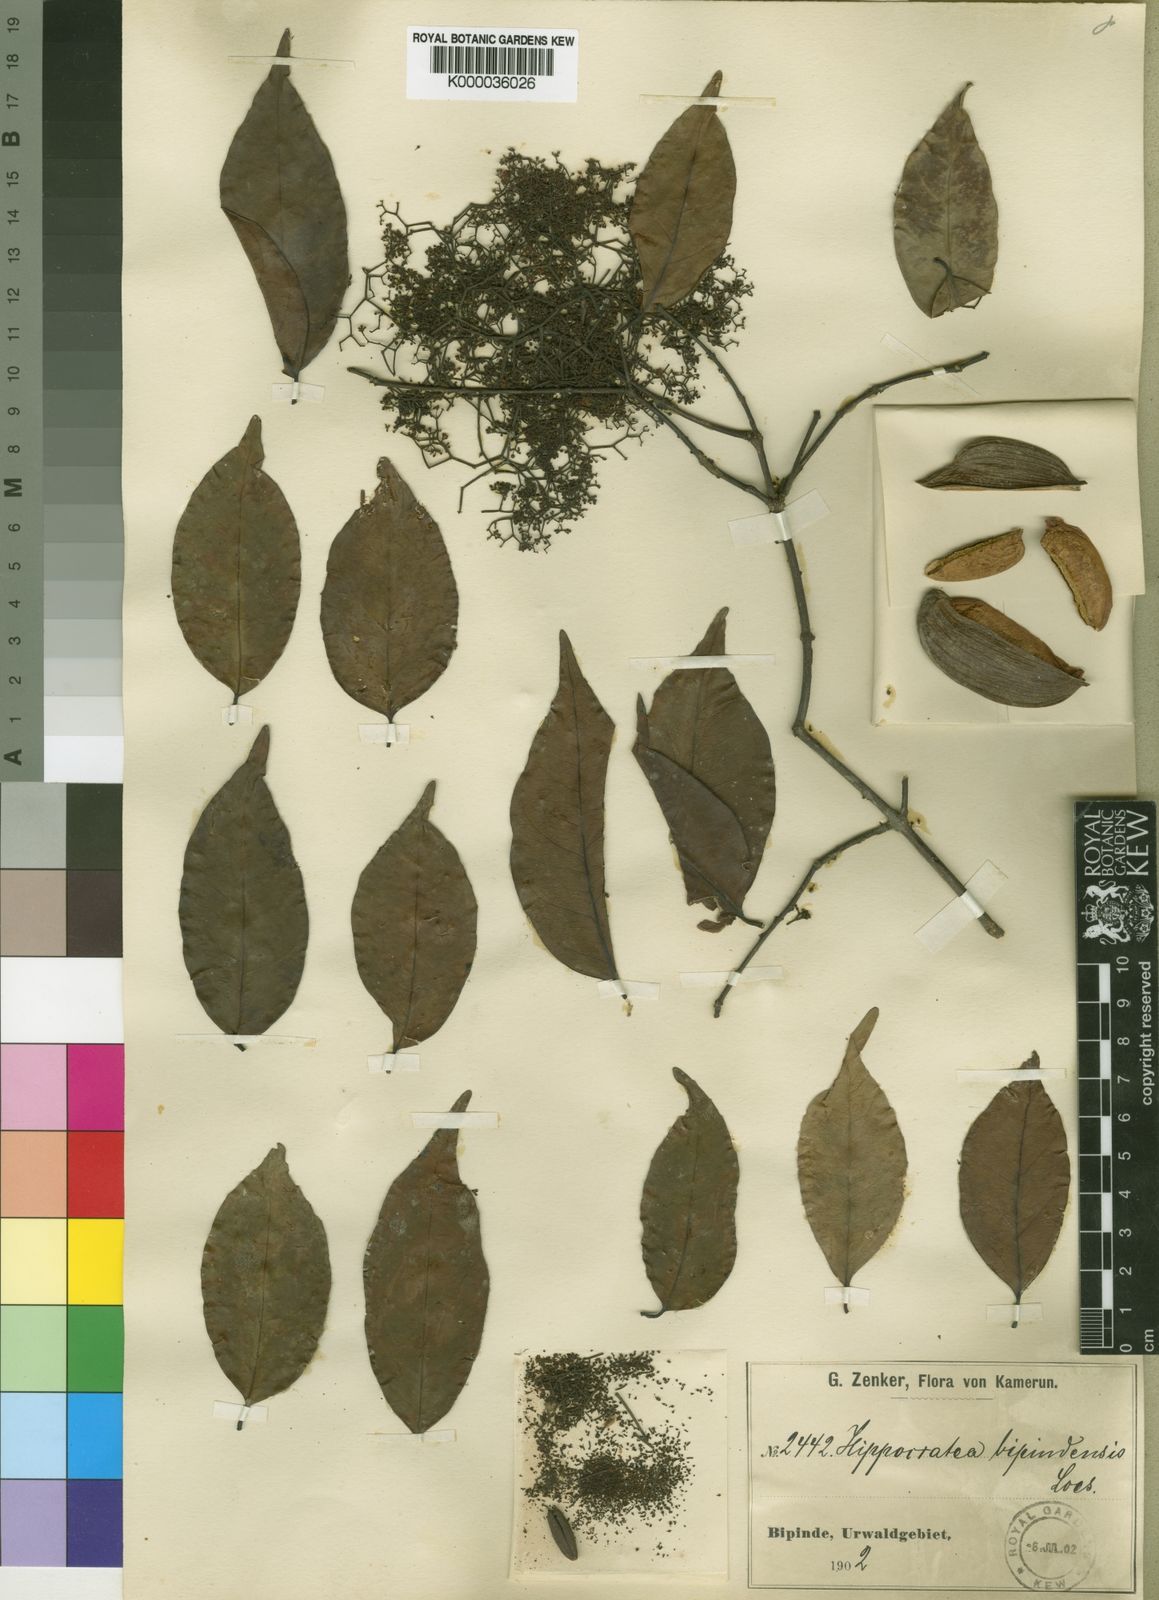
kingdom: Plantae
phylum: Tracheophyta
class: Magnoliopsida
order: Celastrales
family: Celastraceae
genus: Elachyptera
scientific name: Elachyptera bipindensis
